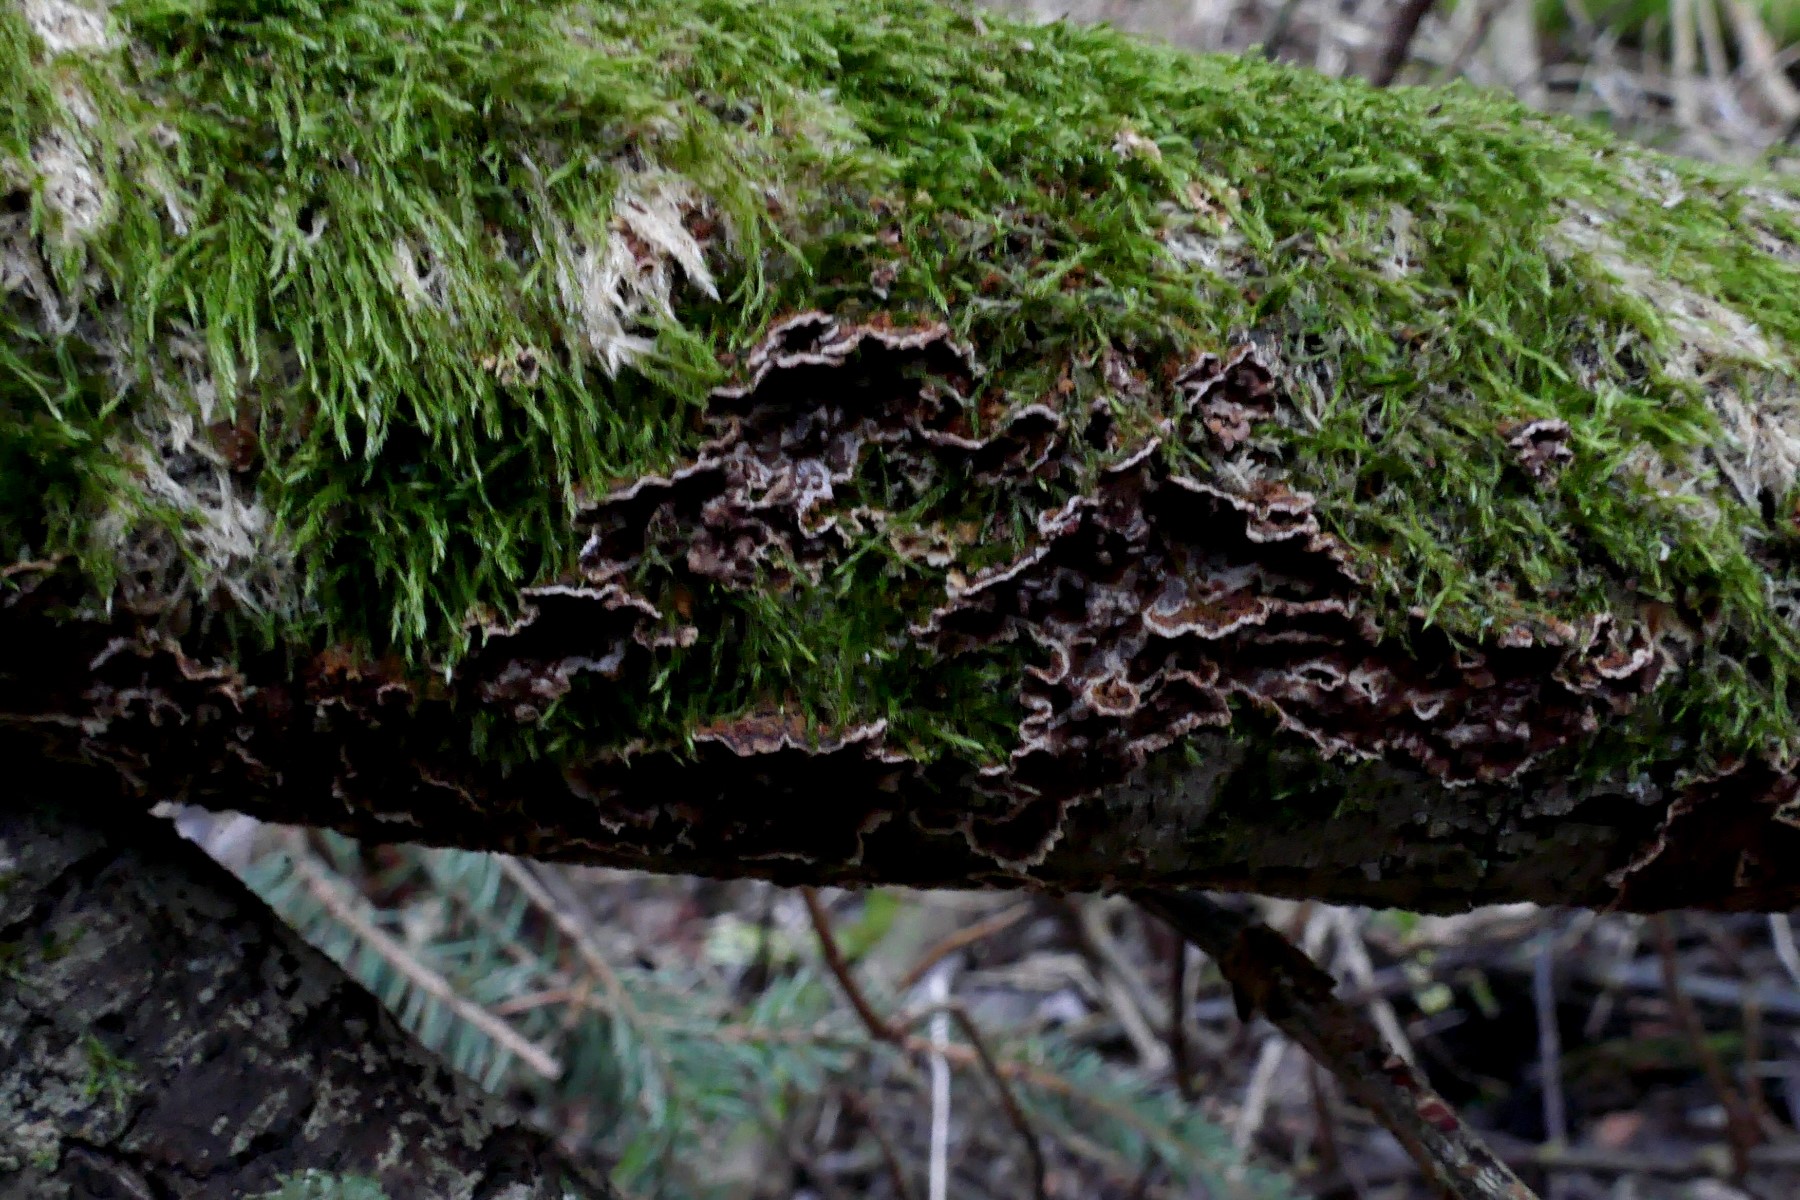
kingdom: Fungi
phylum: Basidiomycota
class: Agaricomycetes
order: Hymenochaetales
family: Hymenochaetaceae
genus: Hydnoporia
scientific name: Hydnoporia tabacina
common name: tobaksbrun ruslædersvamp
